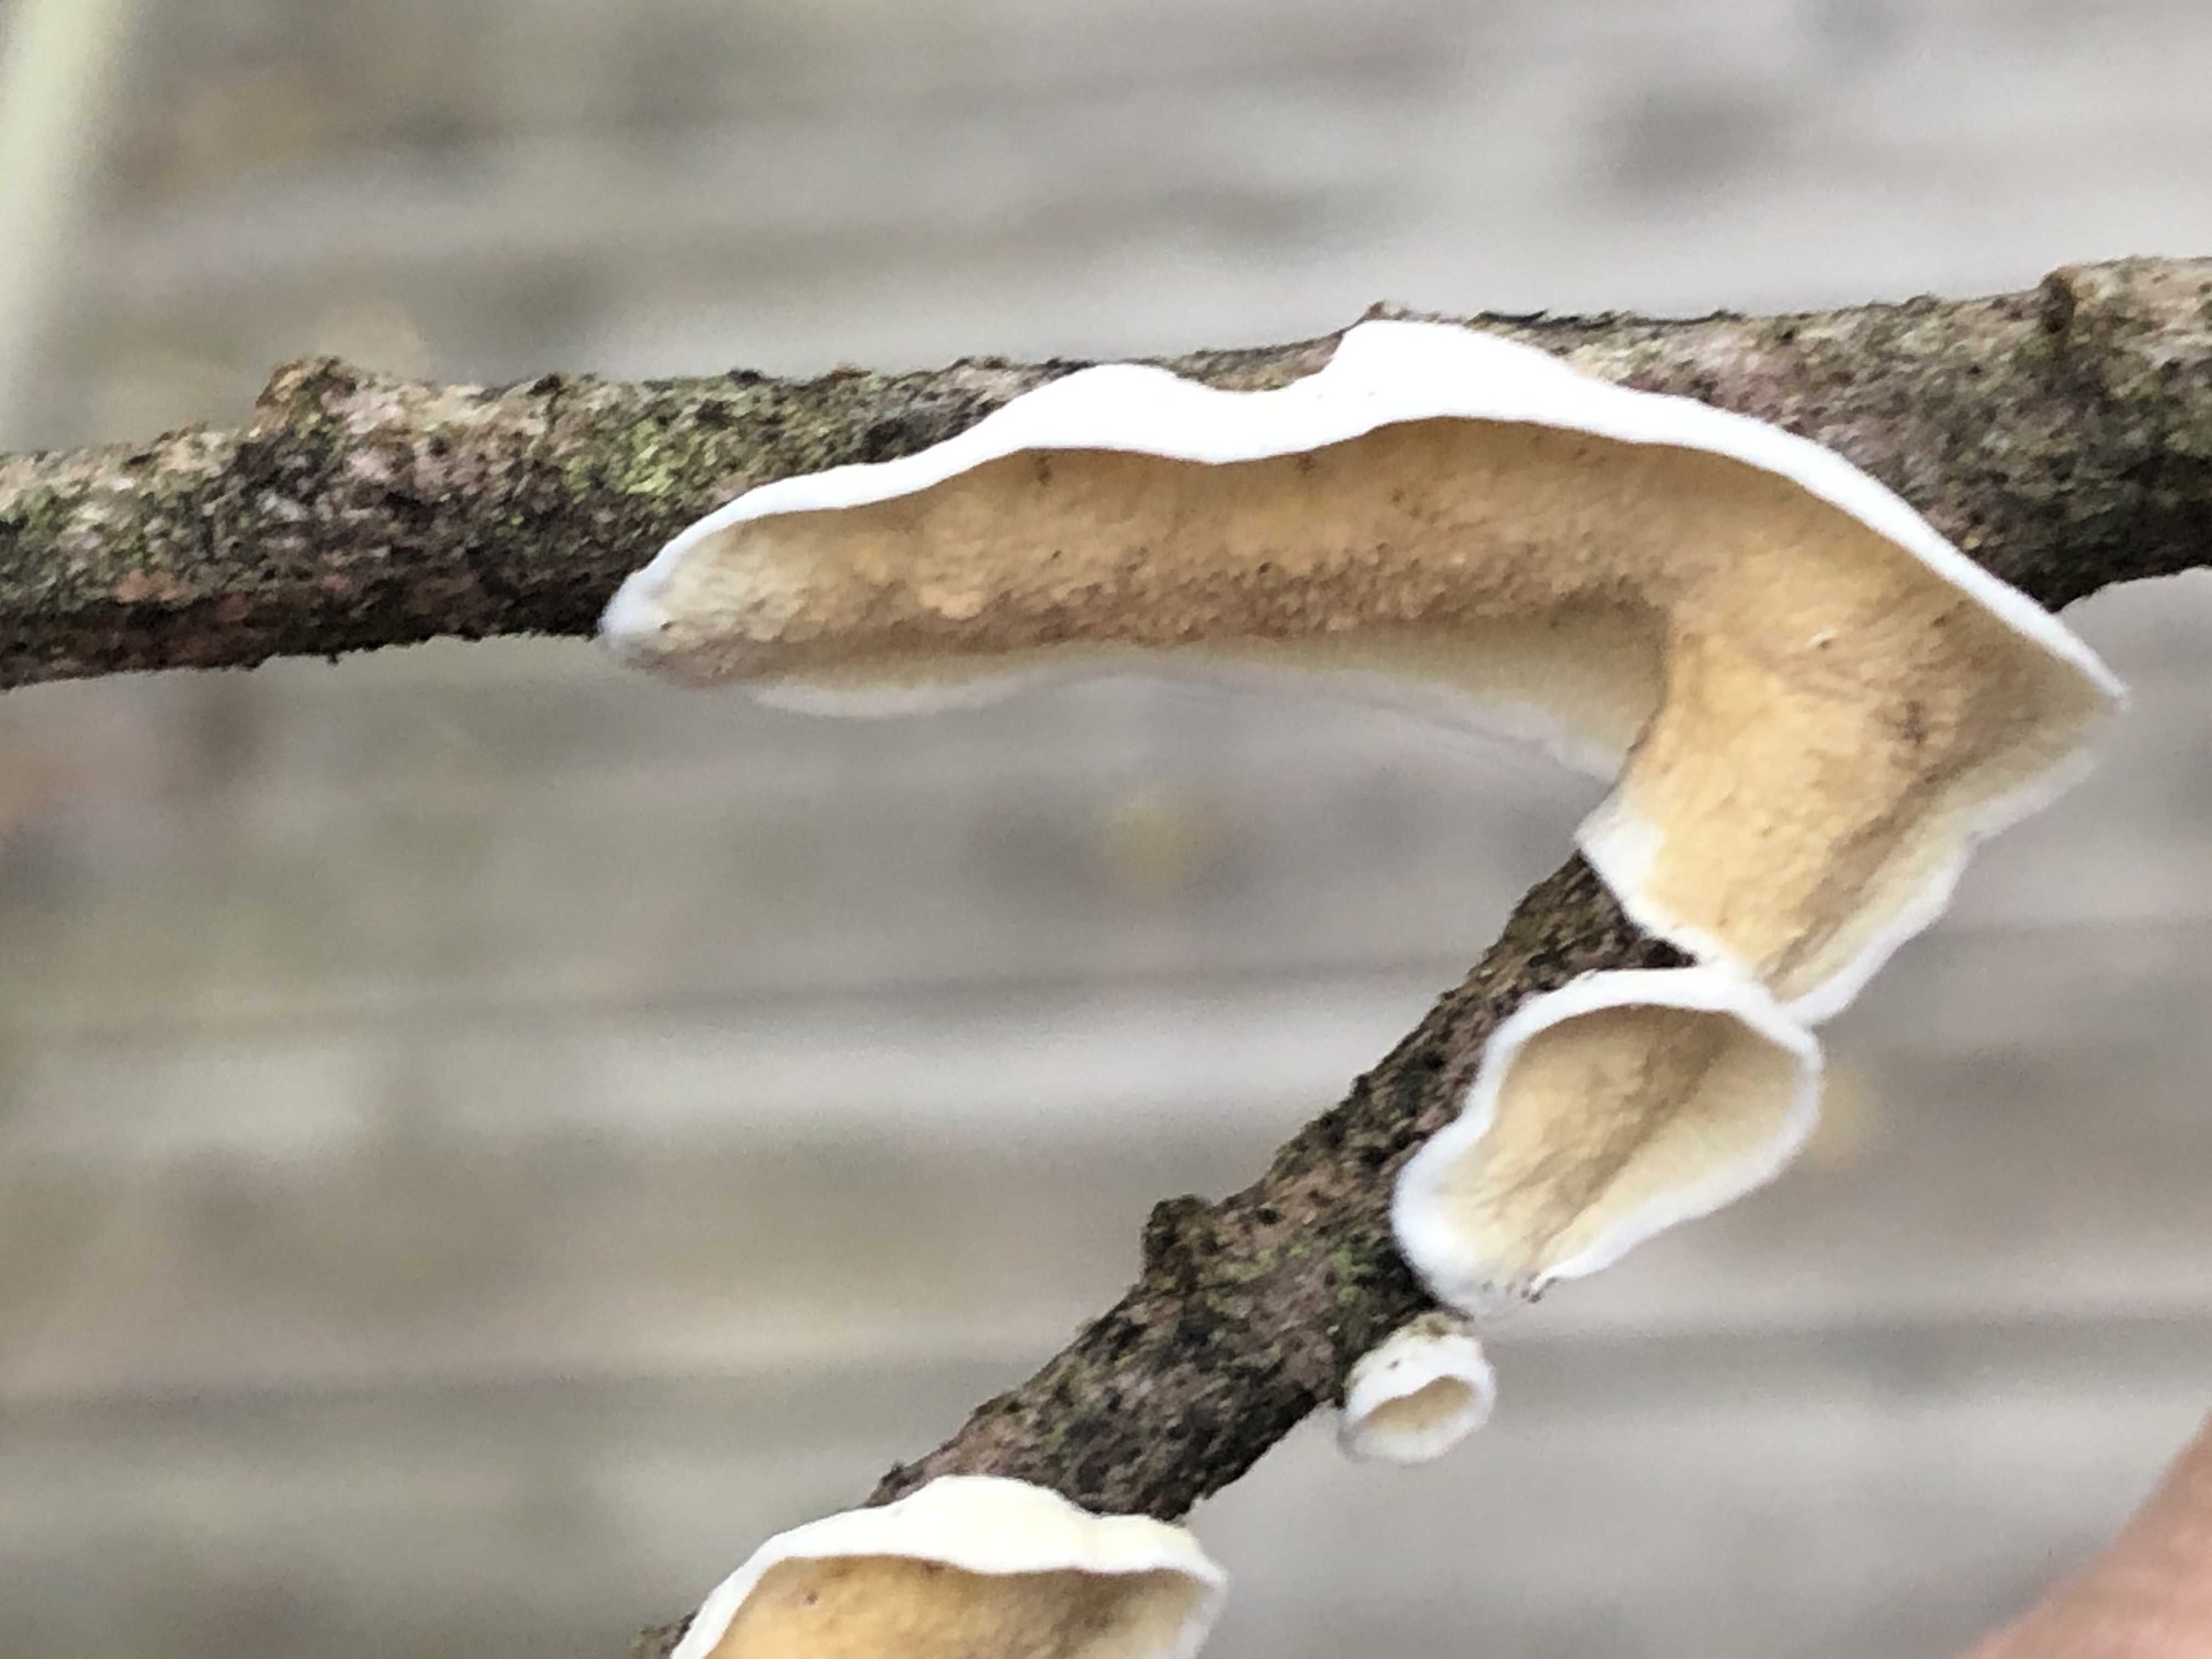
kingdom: Fungi
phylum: Basidiomycota
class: Agaricomycetes
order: Polyporales
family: Irpicaceae
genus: Byssomerulius
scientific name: Byssomerulius corium
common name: læder-åresvamp
